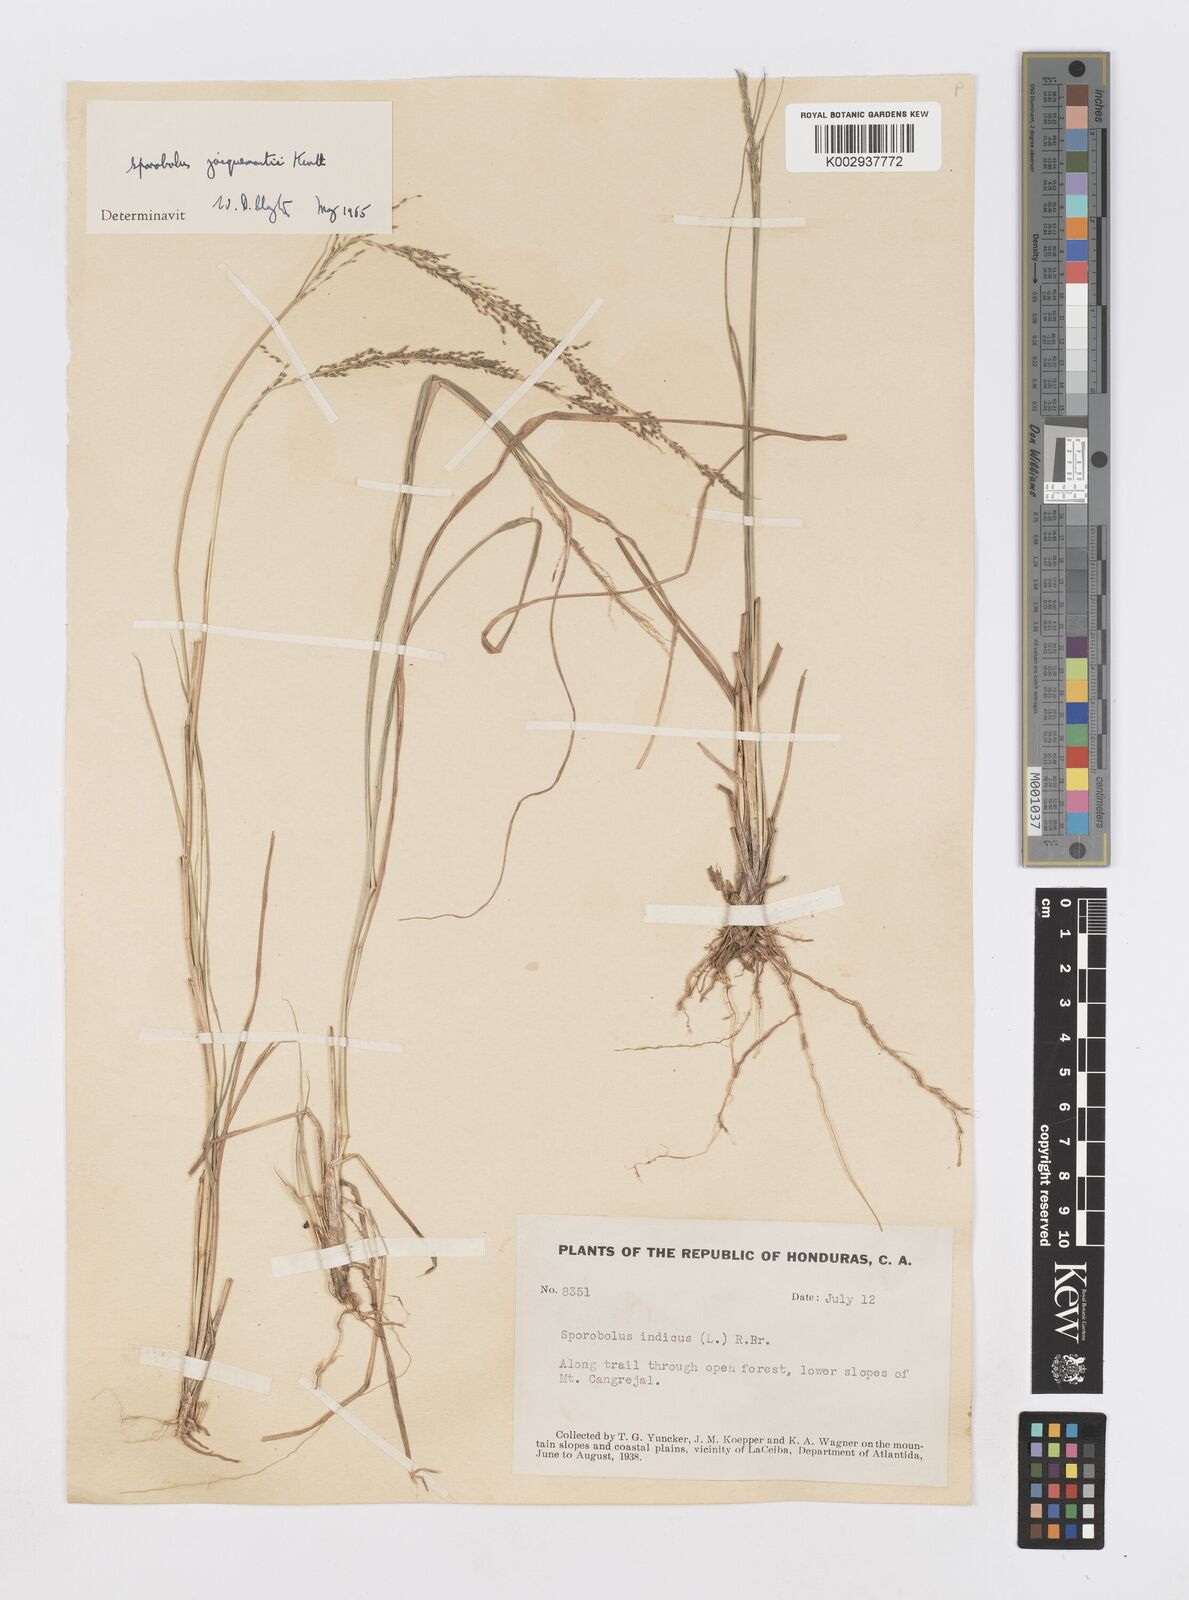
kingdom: Plantae
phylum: Tracheophyta
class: Liliopsida
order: Poales
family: Poaceae
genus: Sporobolus
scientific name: Sporobolus pyramidalis
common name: West indian dropseed
